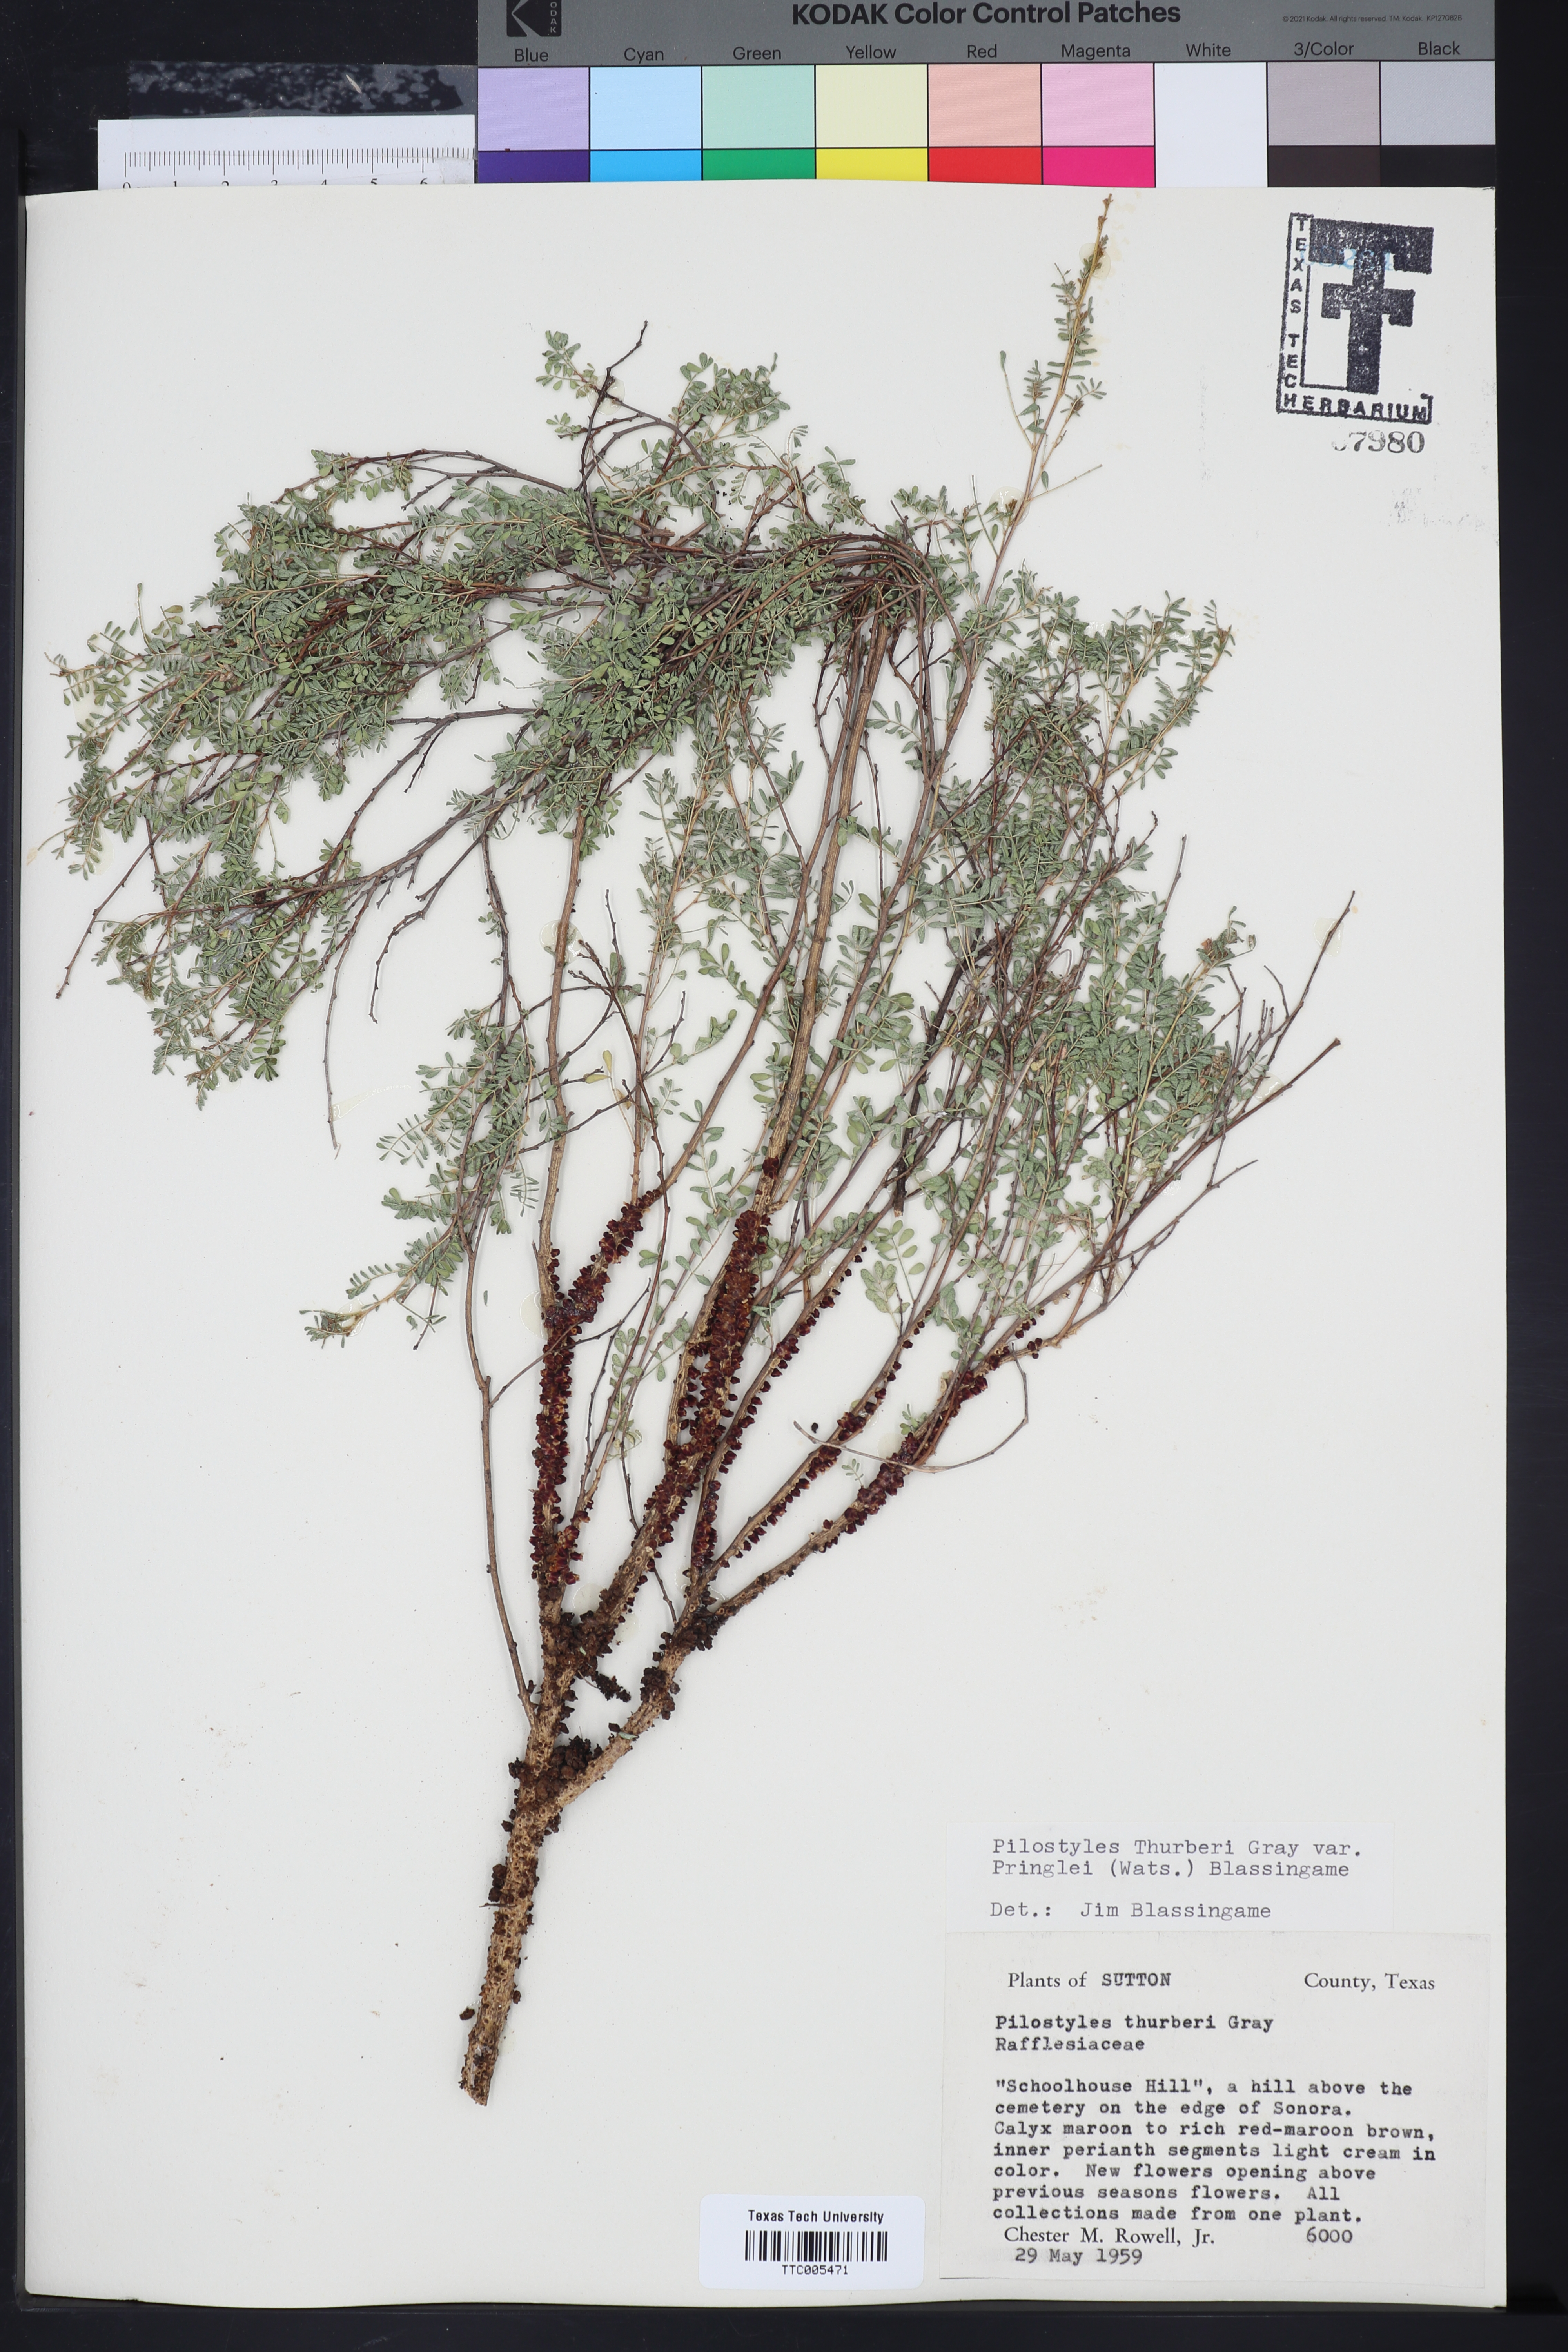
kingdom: Plantae
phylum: Tracheophyta
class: Magnoliopsida
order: Cucurbitales
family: Apodanthaceae
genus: Pilostyles
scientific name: Pilostyles thurberi
